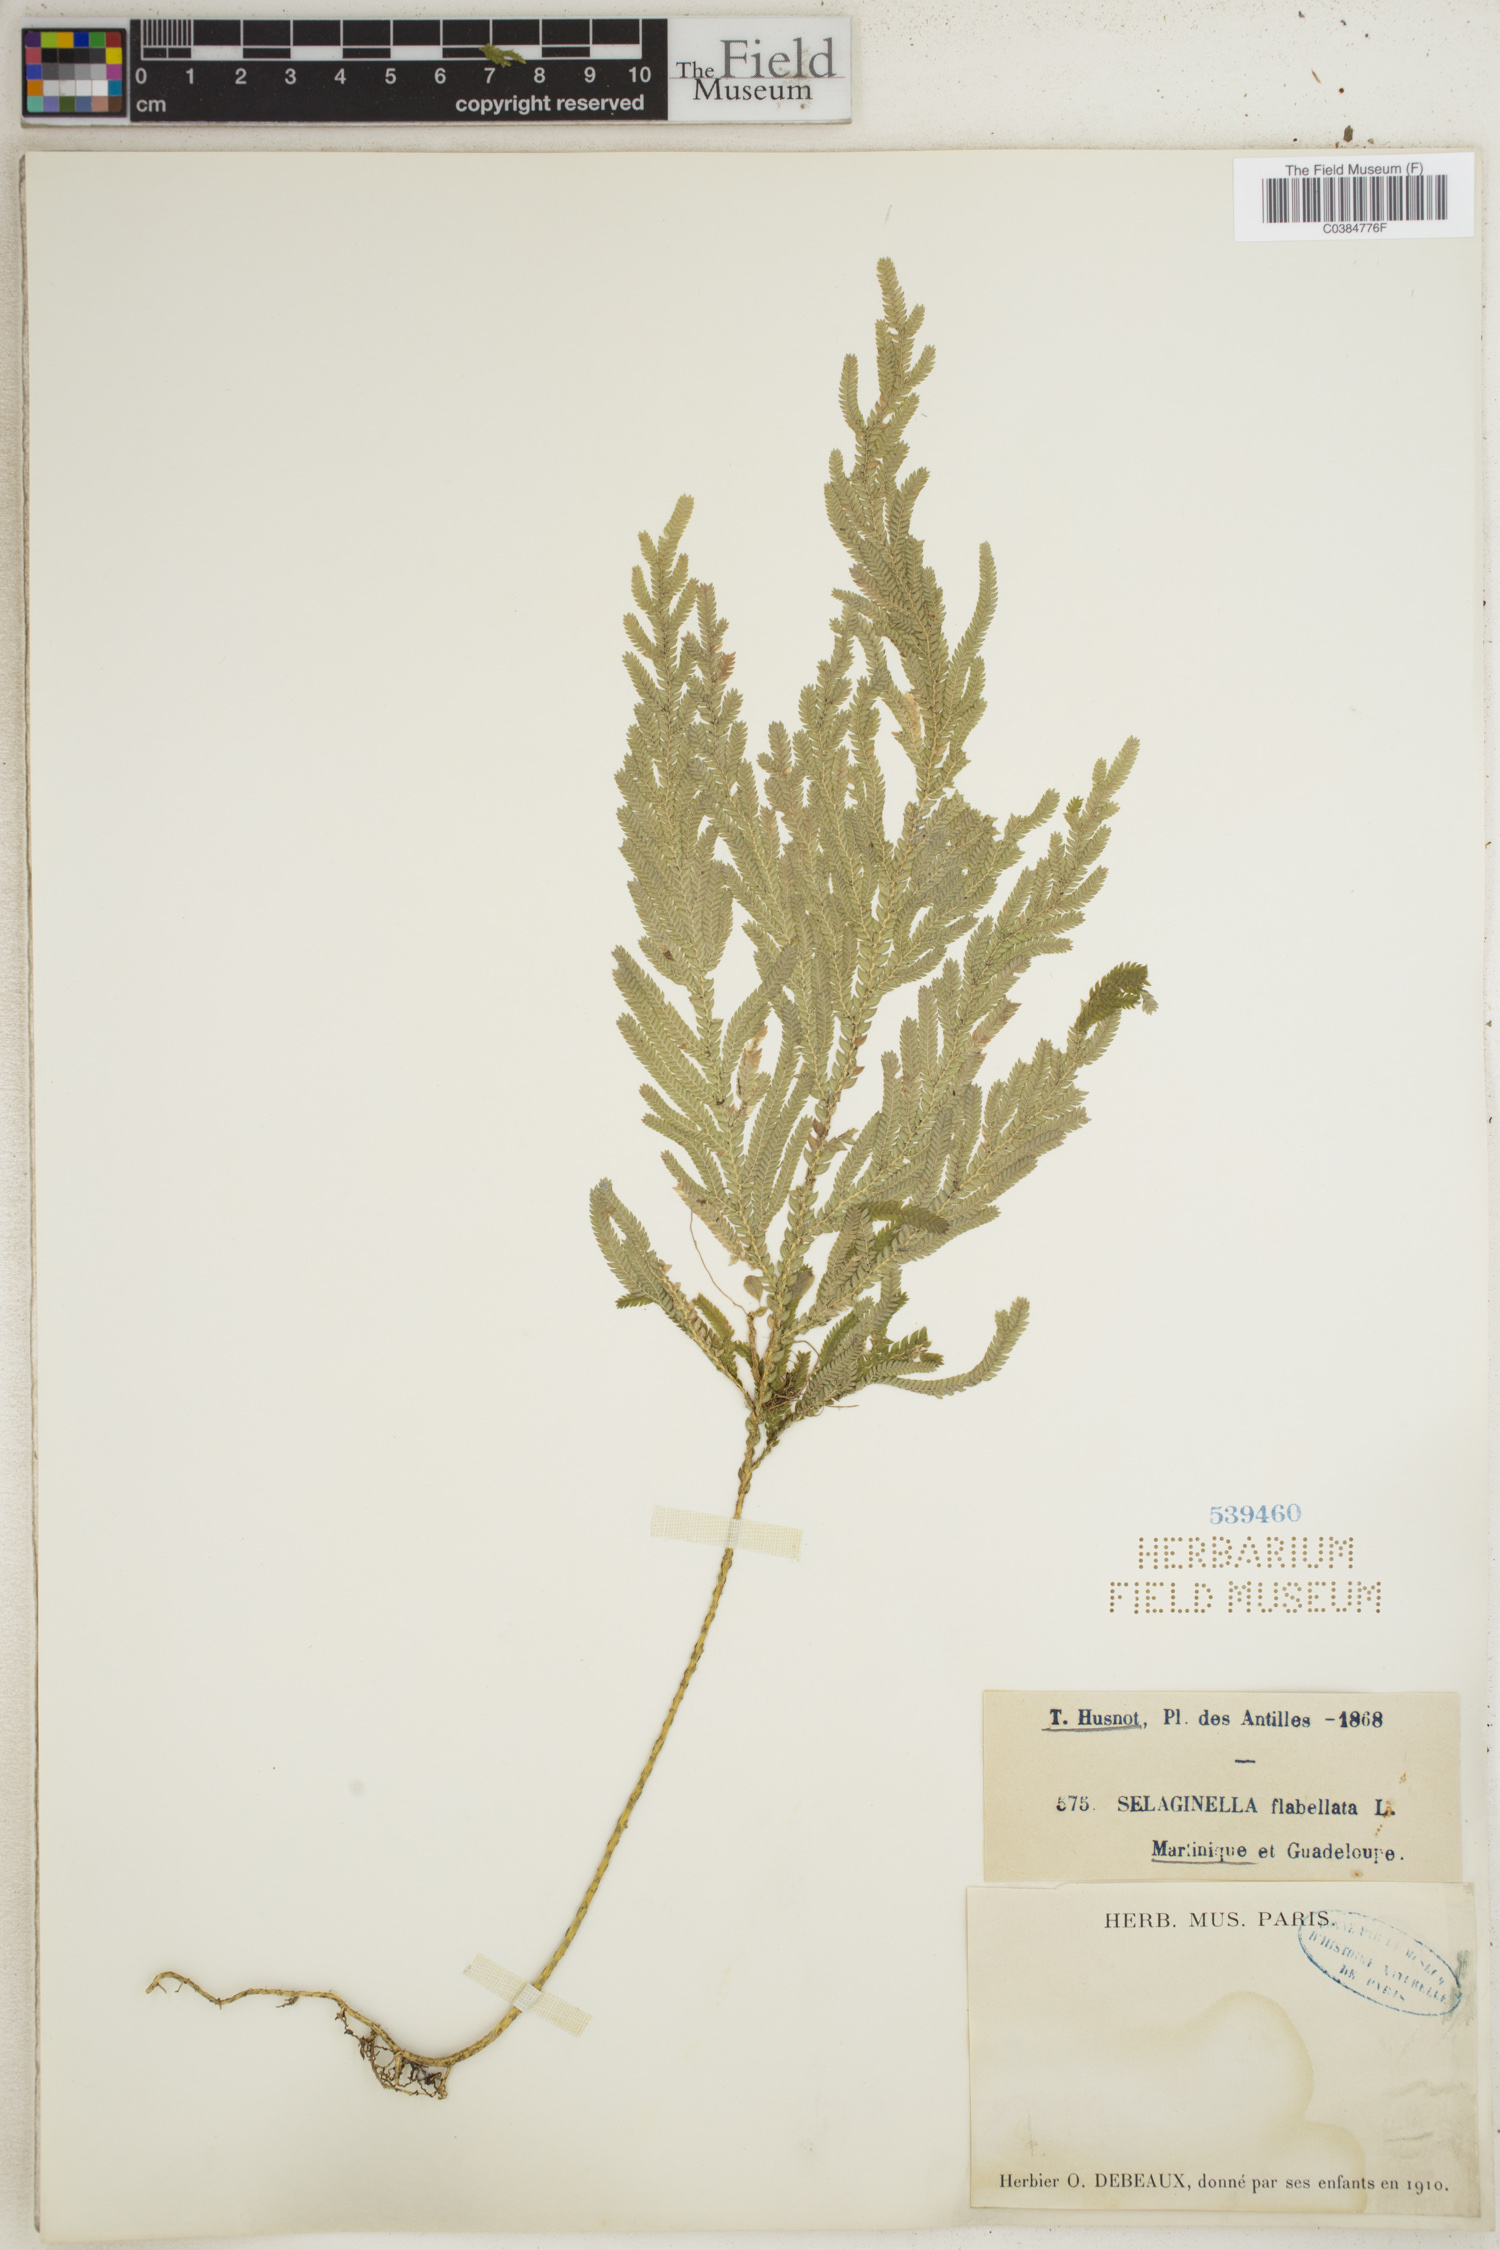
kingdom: Plantae
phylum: Tracheophyta
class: Lycopodiopsida
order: Selaginellales
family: Selaginellaceae
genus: Selaginella
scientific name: Selaginella flabellata
